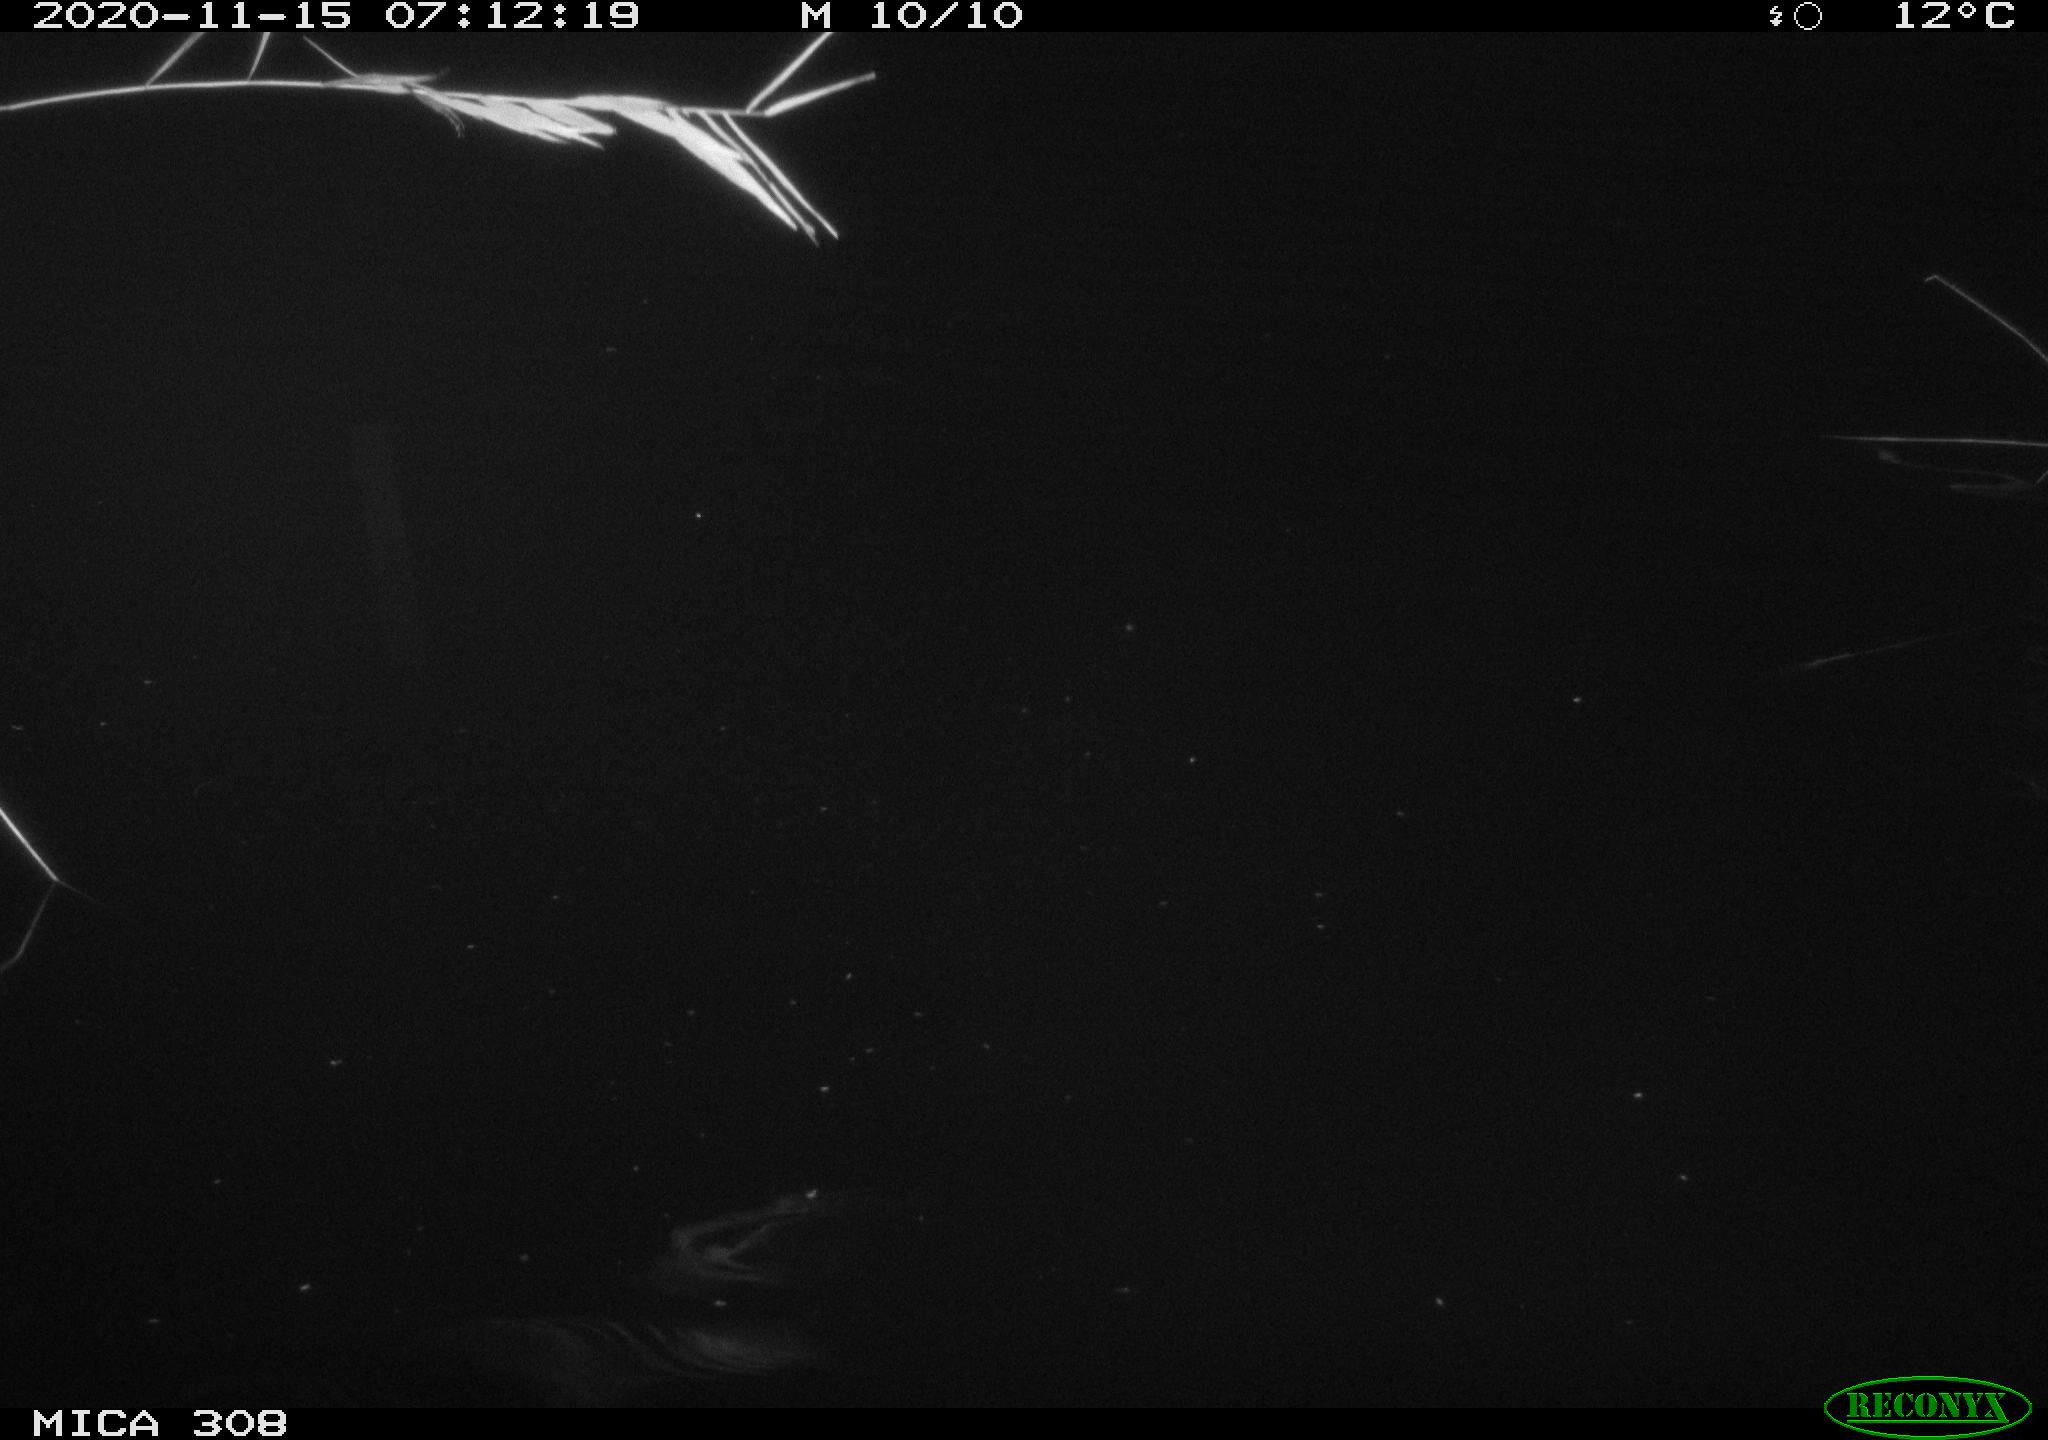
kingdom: Animalia
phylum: Chordata
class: Aves
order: Anseriformes
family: Anatidae
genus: Anas
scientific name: Anas platyrhynchos
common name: Mallard
